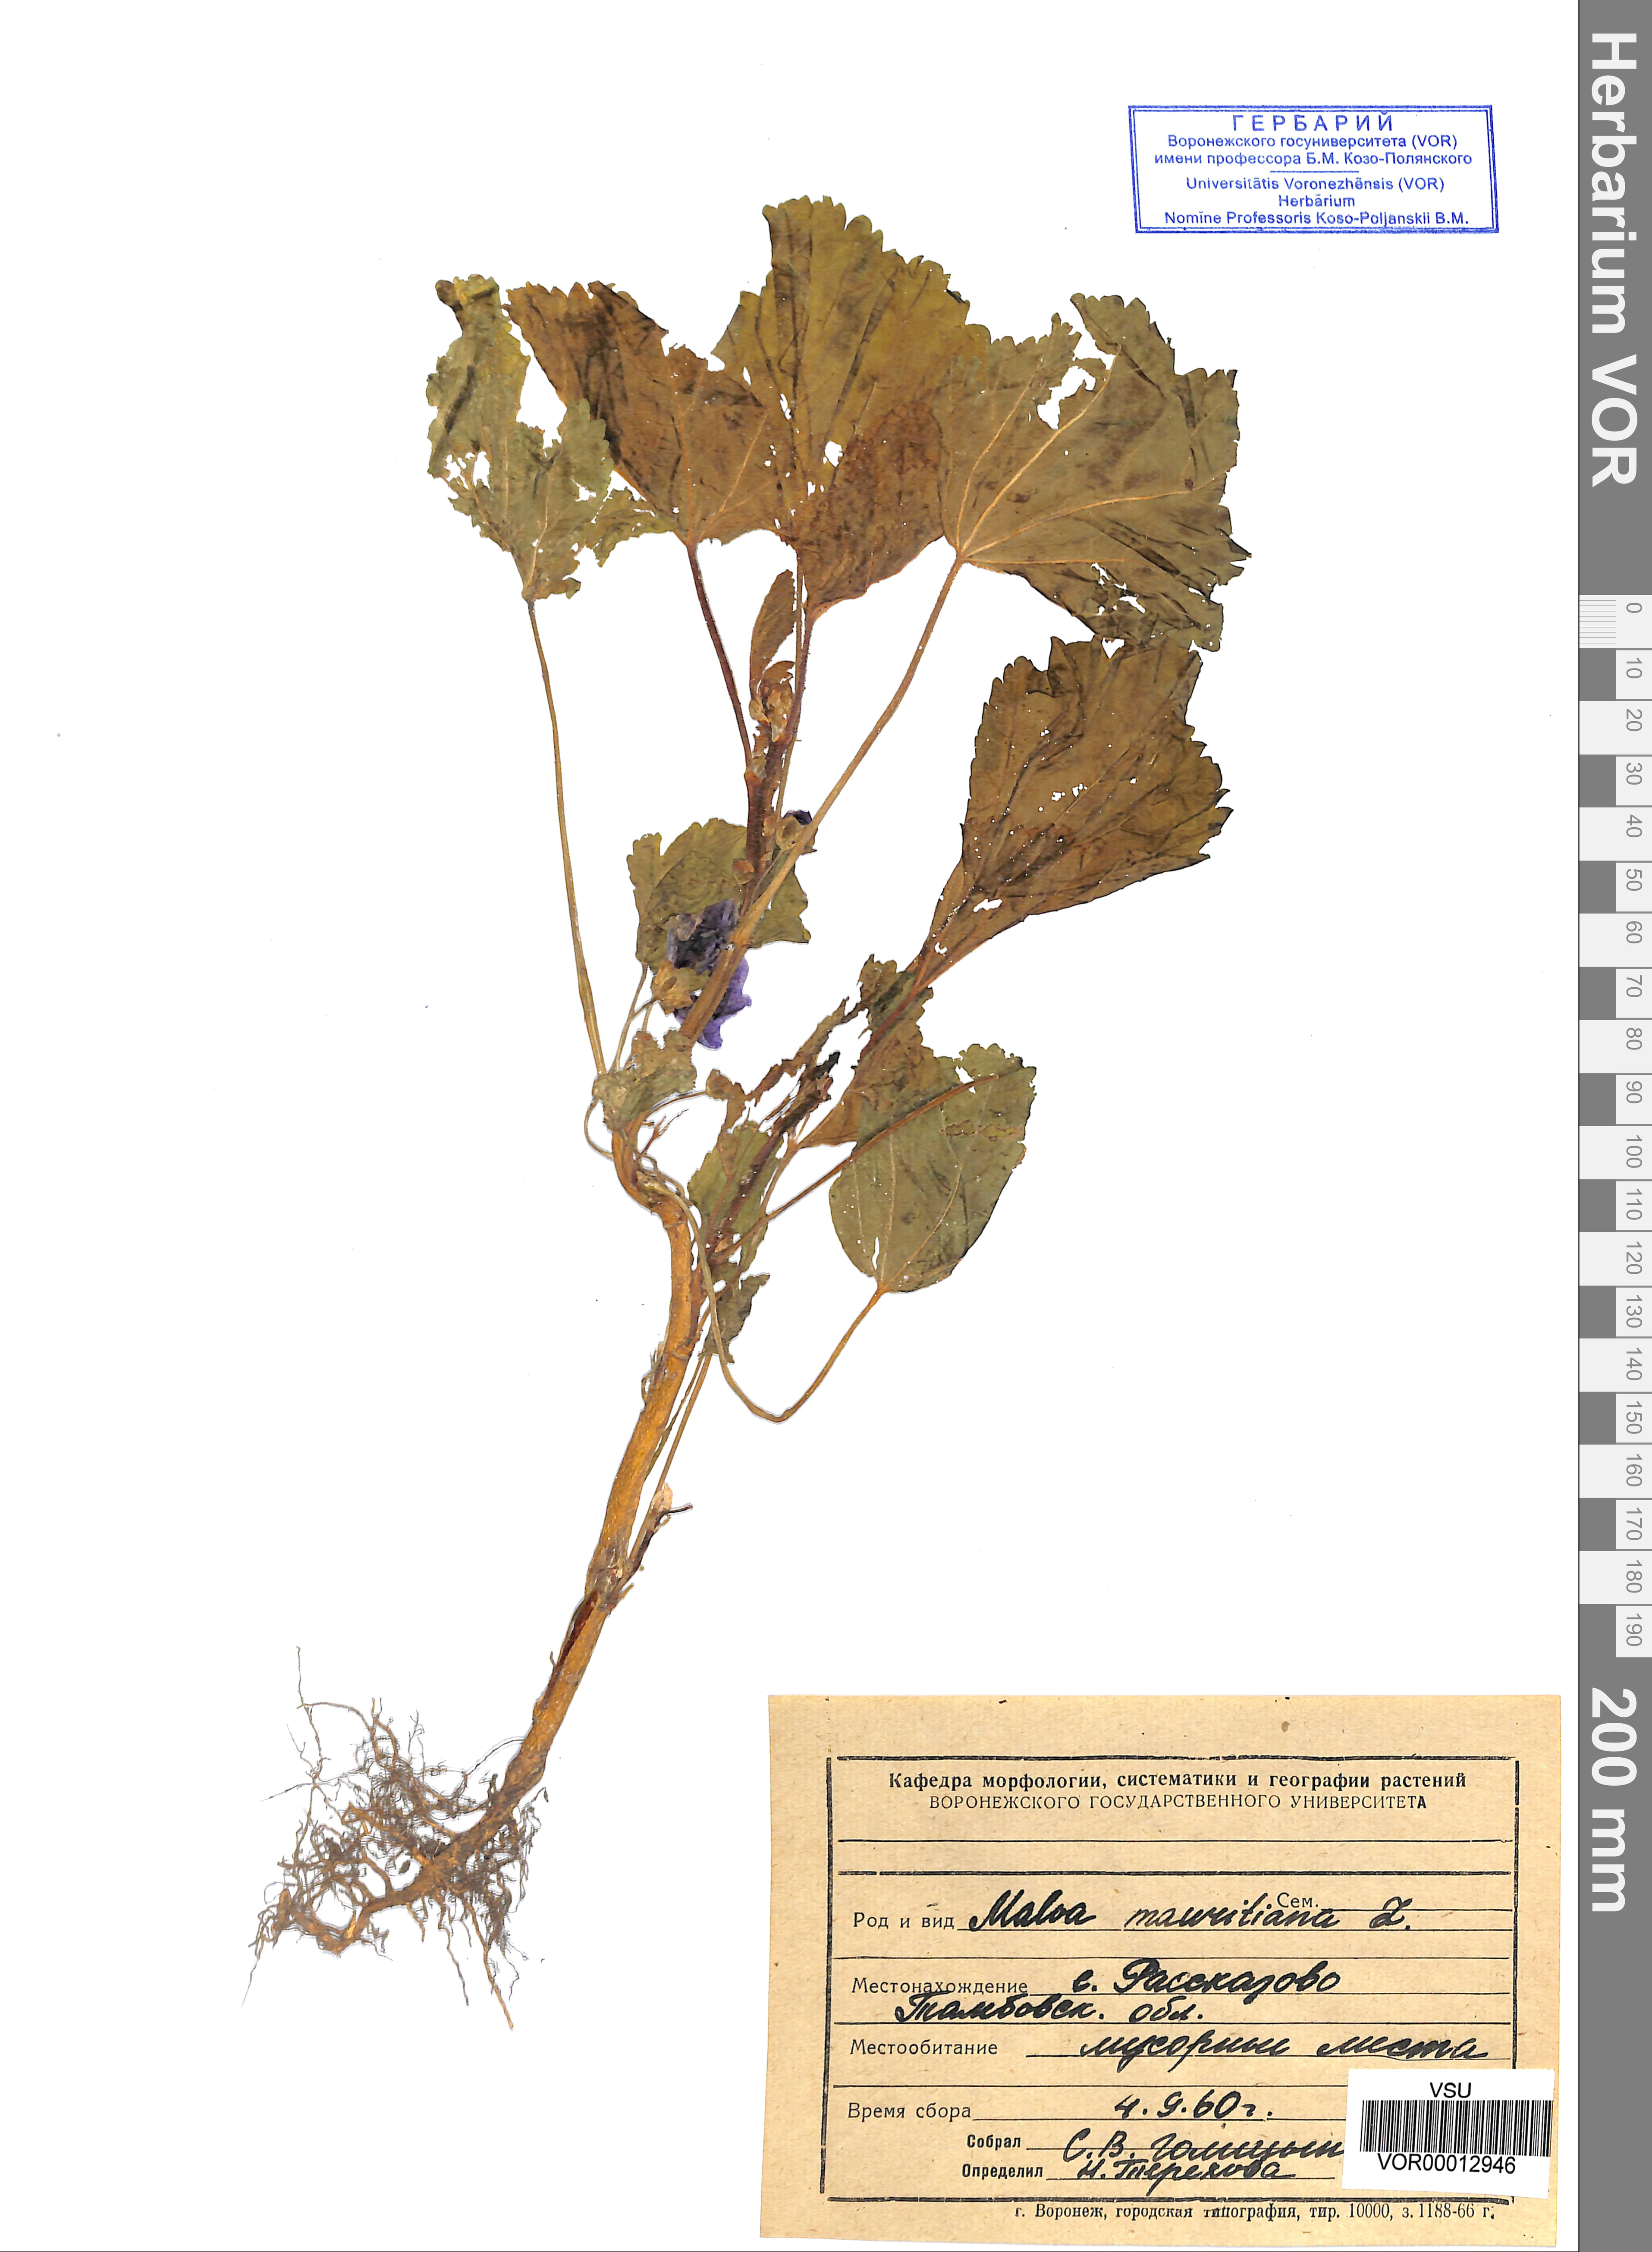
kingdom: Plantae
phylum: Tracheophyta
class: Magnoliopsida
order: Malvales
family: Malvaceae
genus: Malva
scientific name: Malva sylvestris
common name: Common mallow
